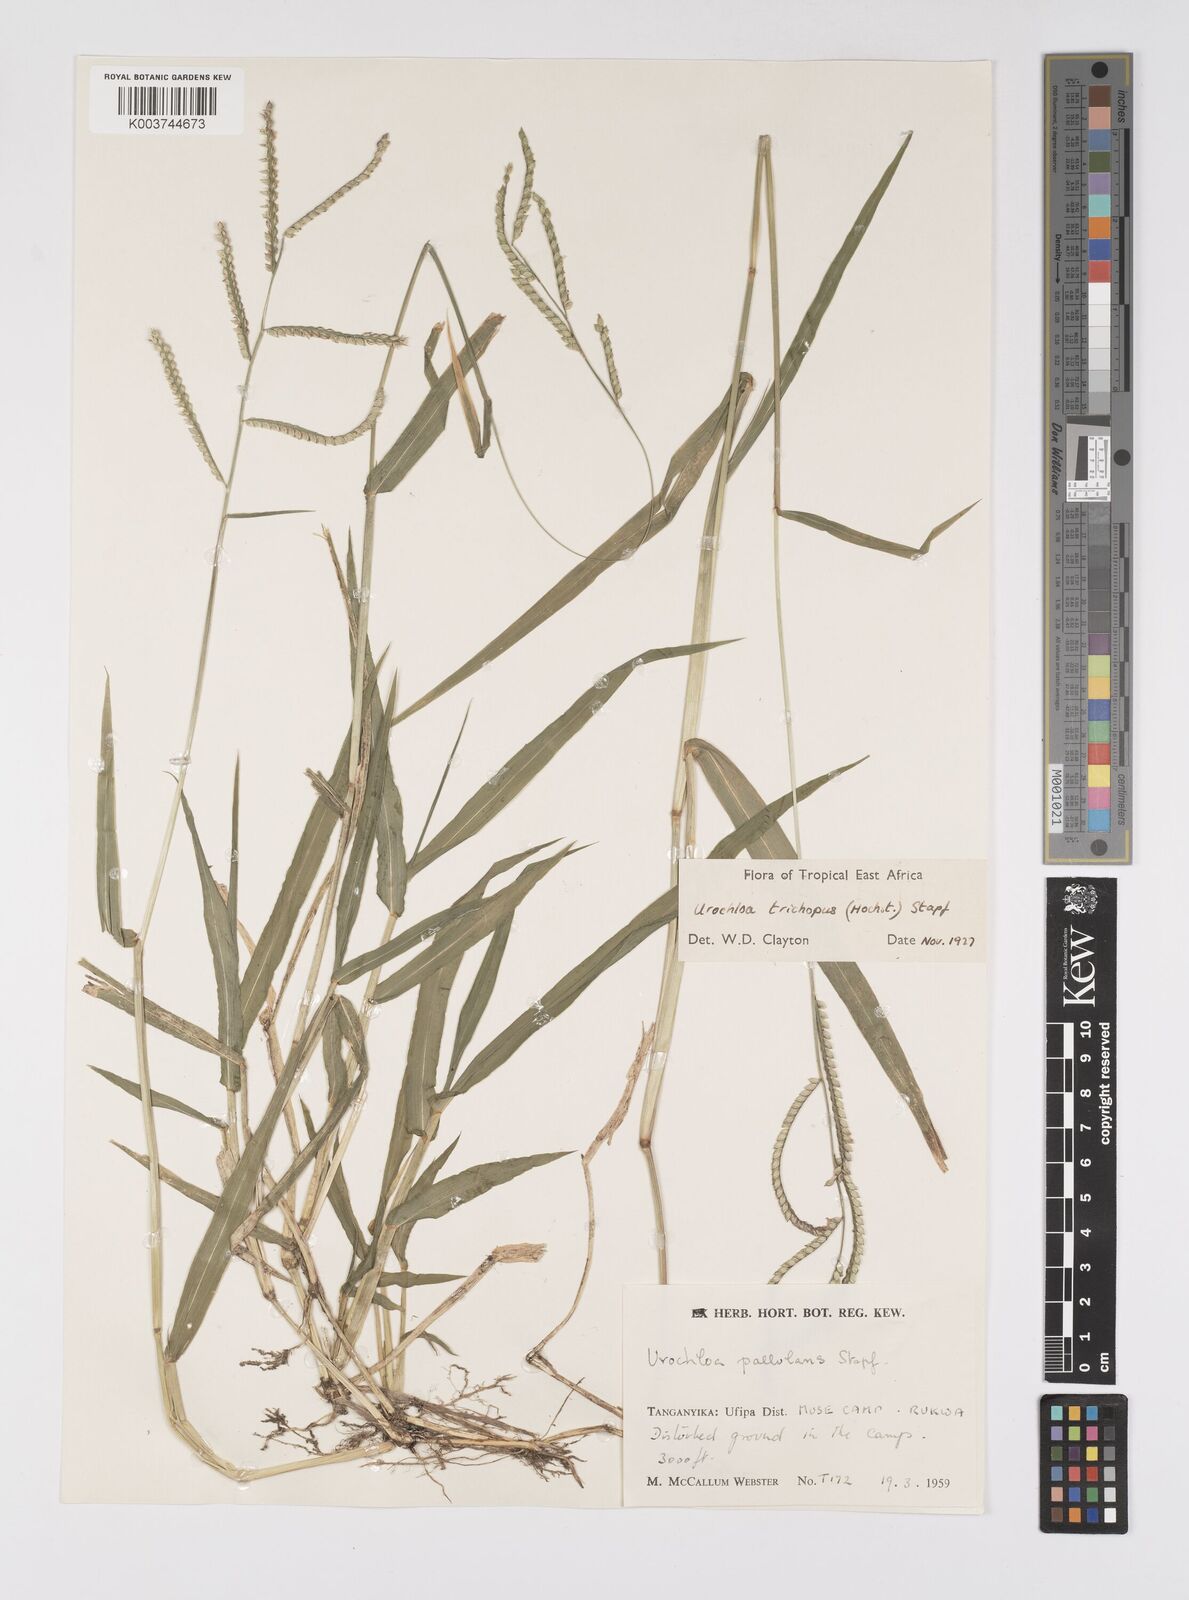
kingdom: Plantae
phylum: Tracheophyta
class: Liliopsida
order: Poales
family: Poaceae
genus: Urochloa
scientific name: Urochloa trichopus
